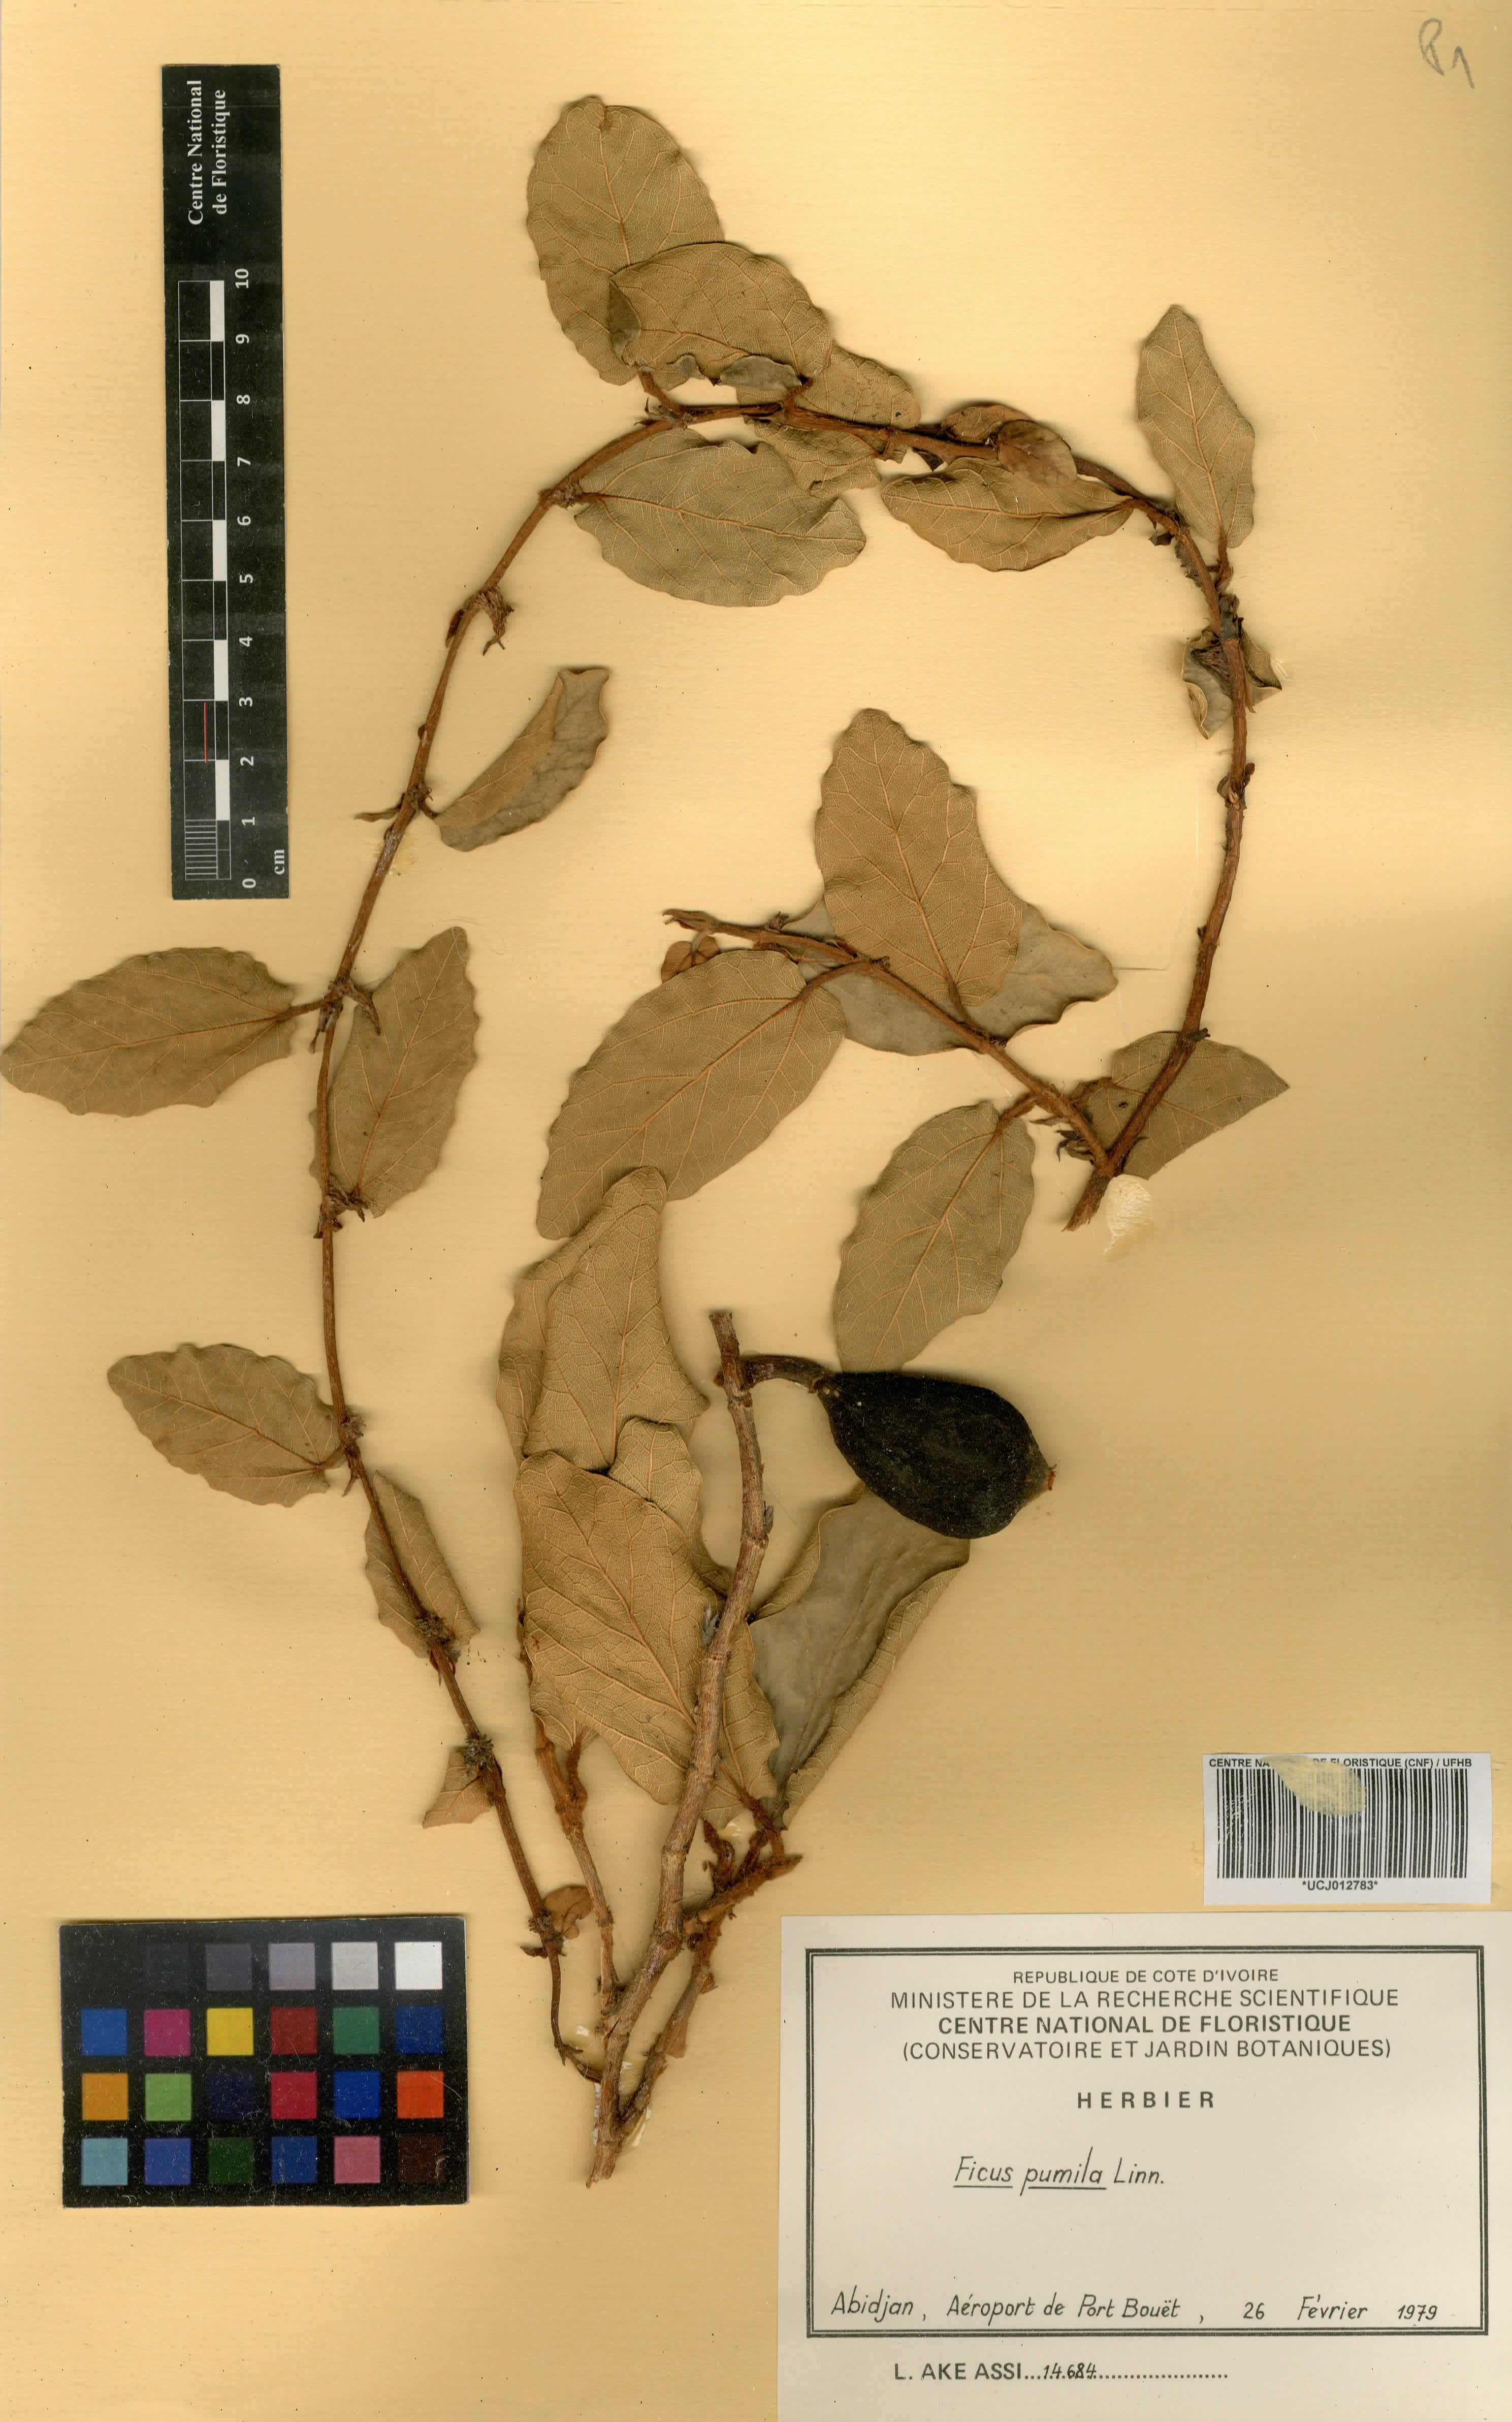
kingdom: Plantae
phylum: Tracheophyta
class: Magnoliopsida
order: Rosales
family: Moraceae
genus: Ficus
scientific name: Ficus pumila
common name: Climbingfig
